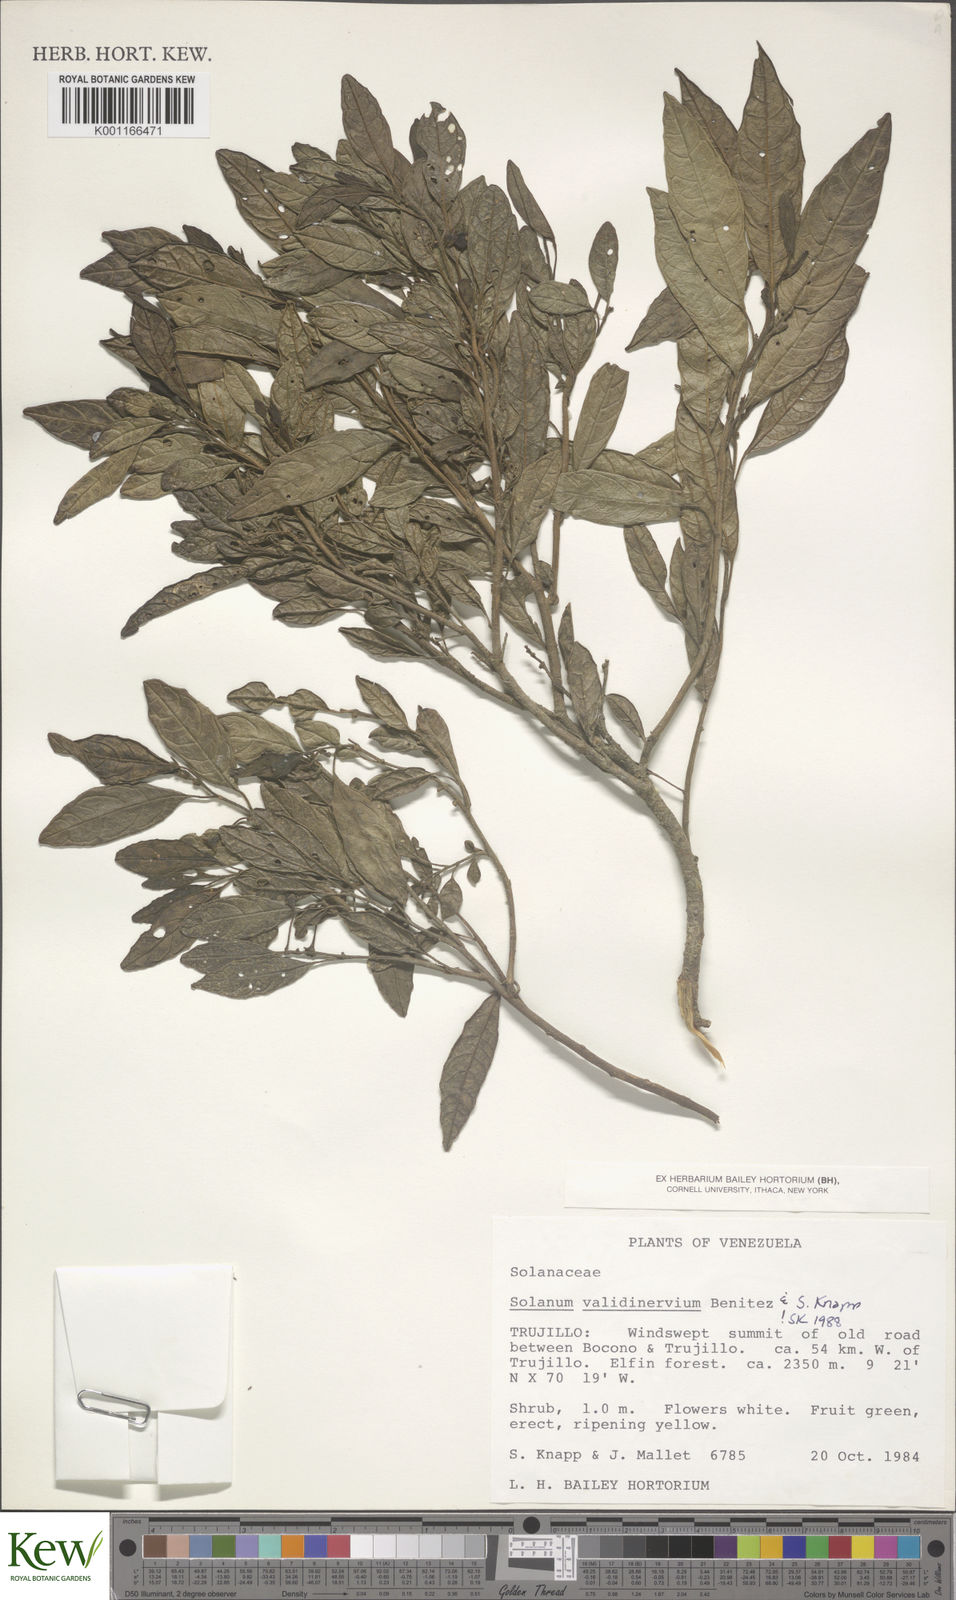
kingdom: Plantae
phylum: Tracheophyta
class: Magnoliopsida
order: Solanales
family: Solanaceae
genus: Solanum
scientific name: Solanum
